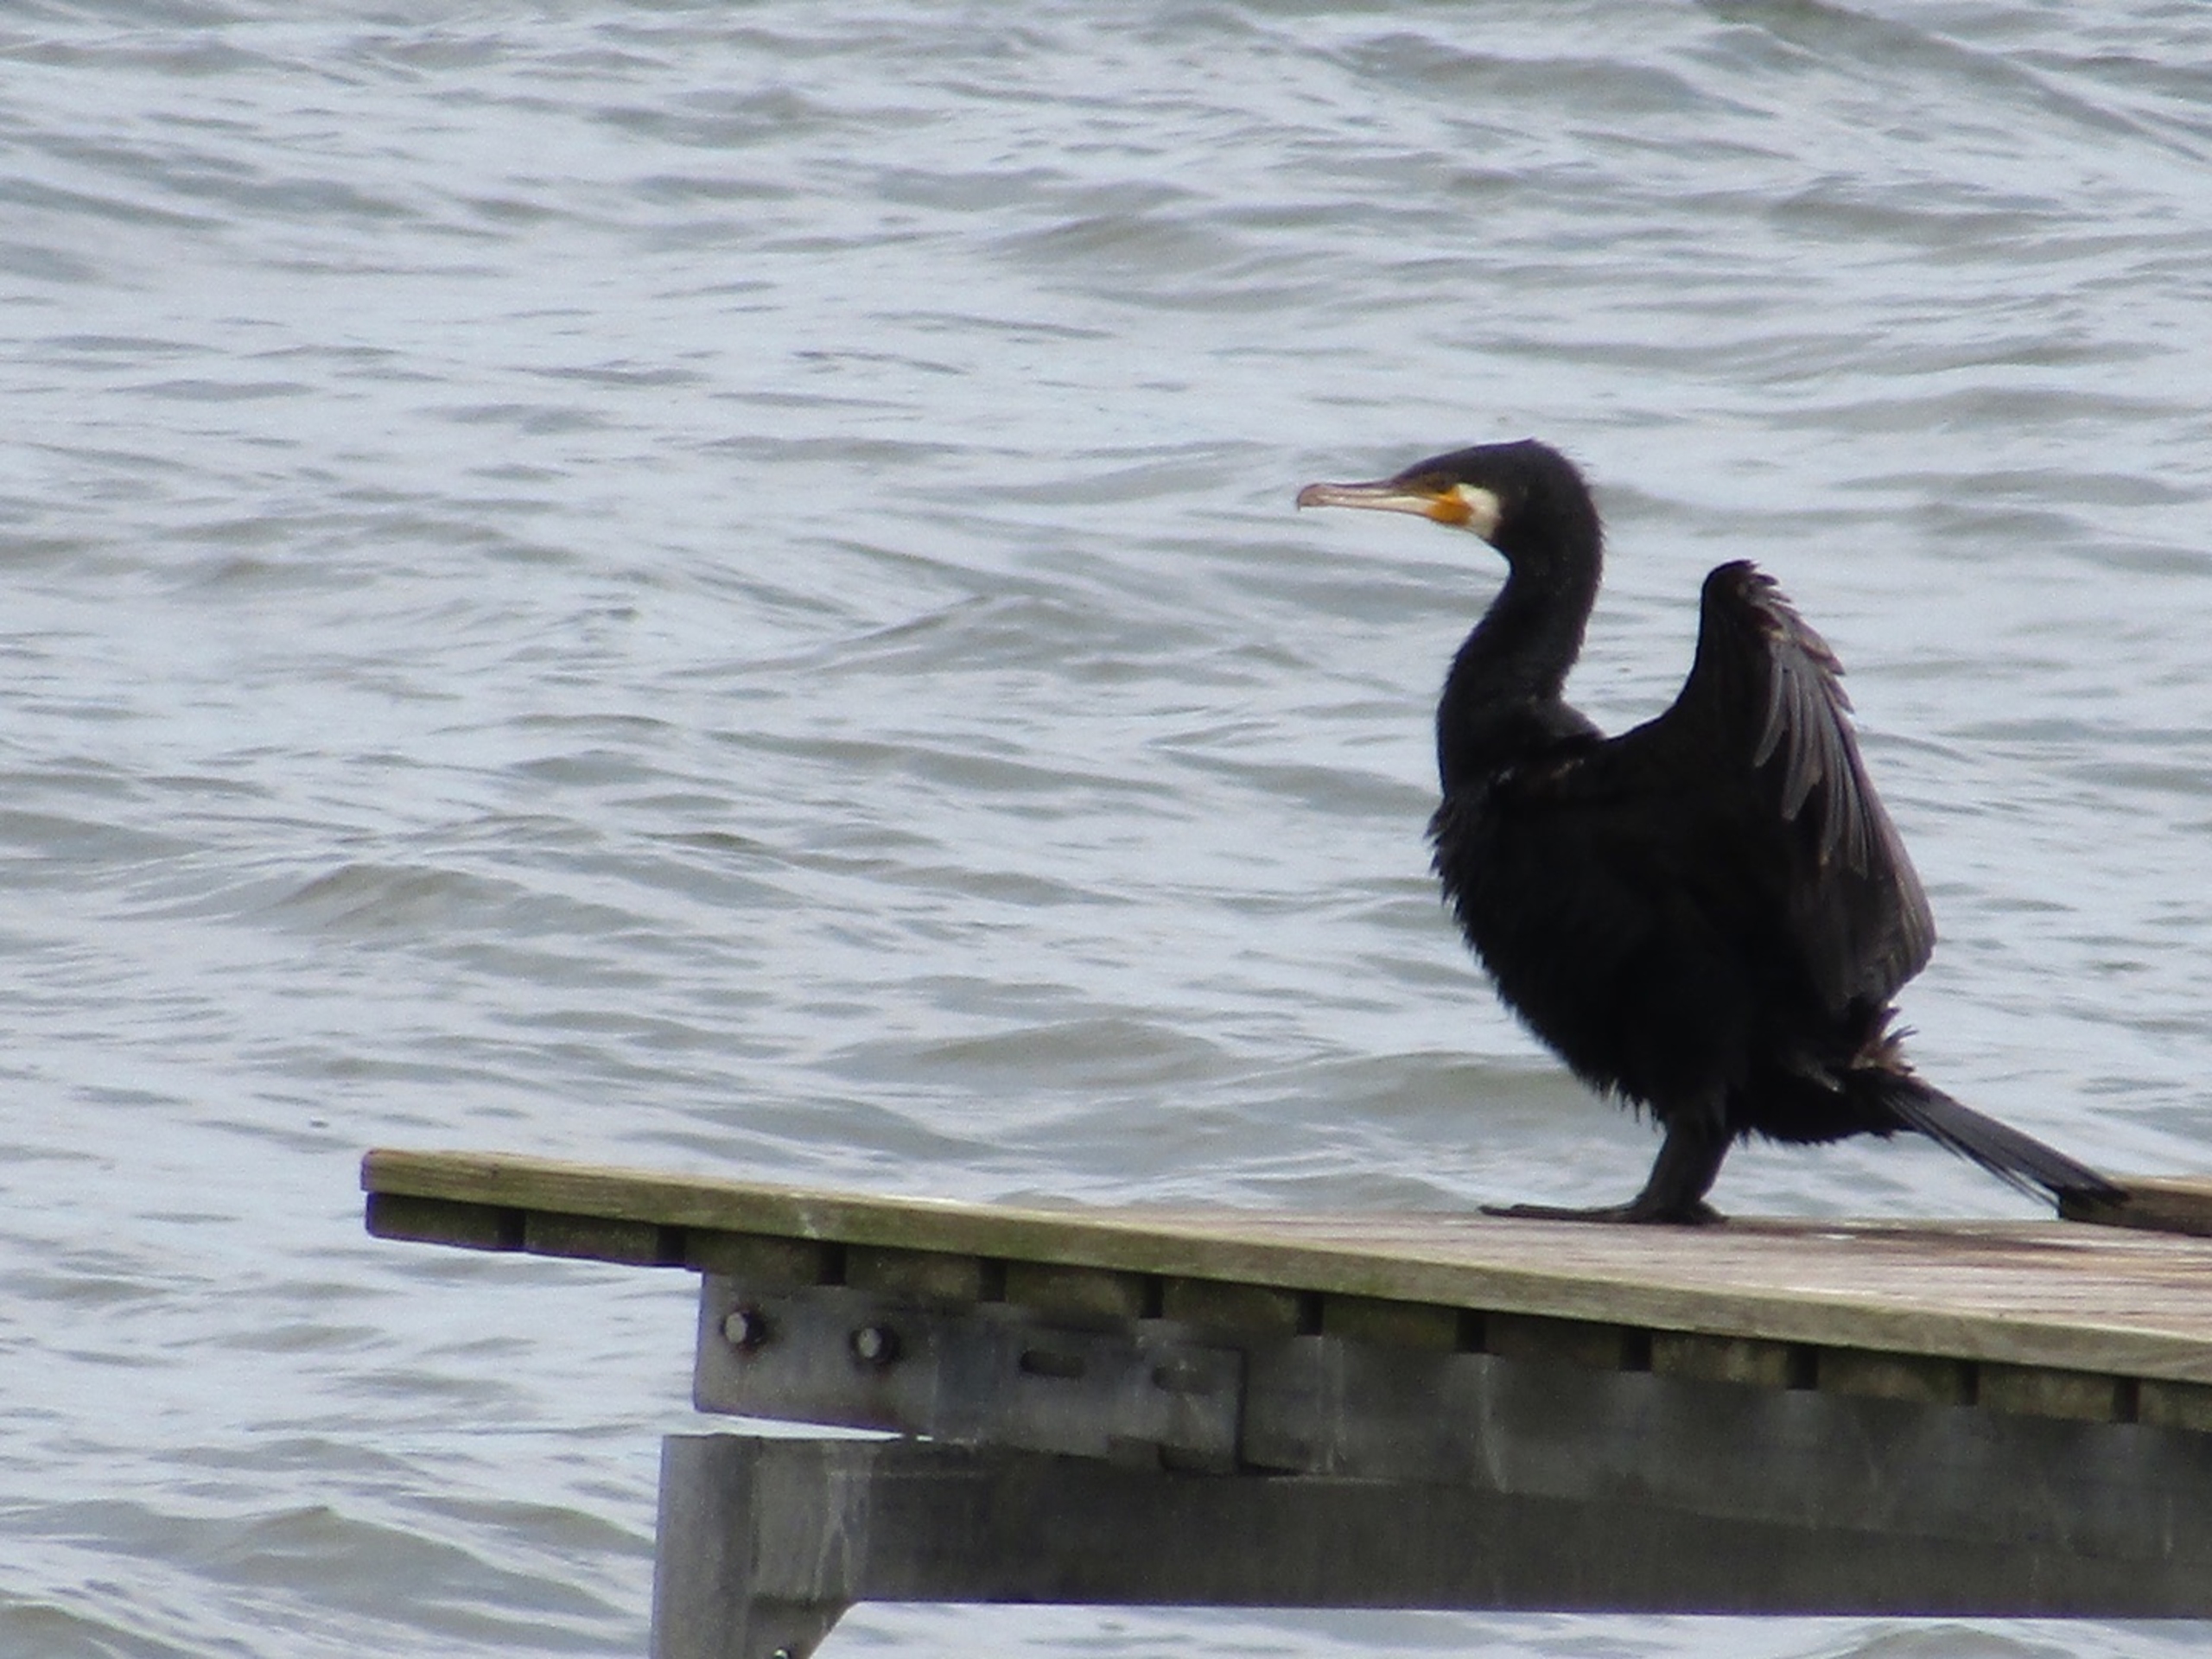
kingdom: Animalia
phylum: Chordata
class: Aves
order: Suliformes
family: Phalacrocoracidae
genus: Phalacrocorax
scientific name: Phalacrocorax carbo
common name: Skarv
